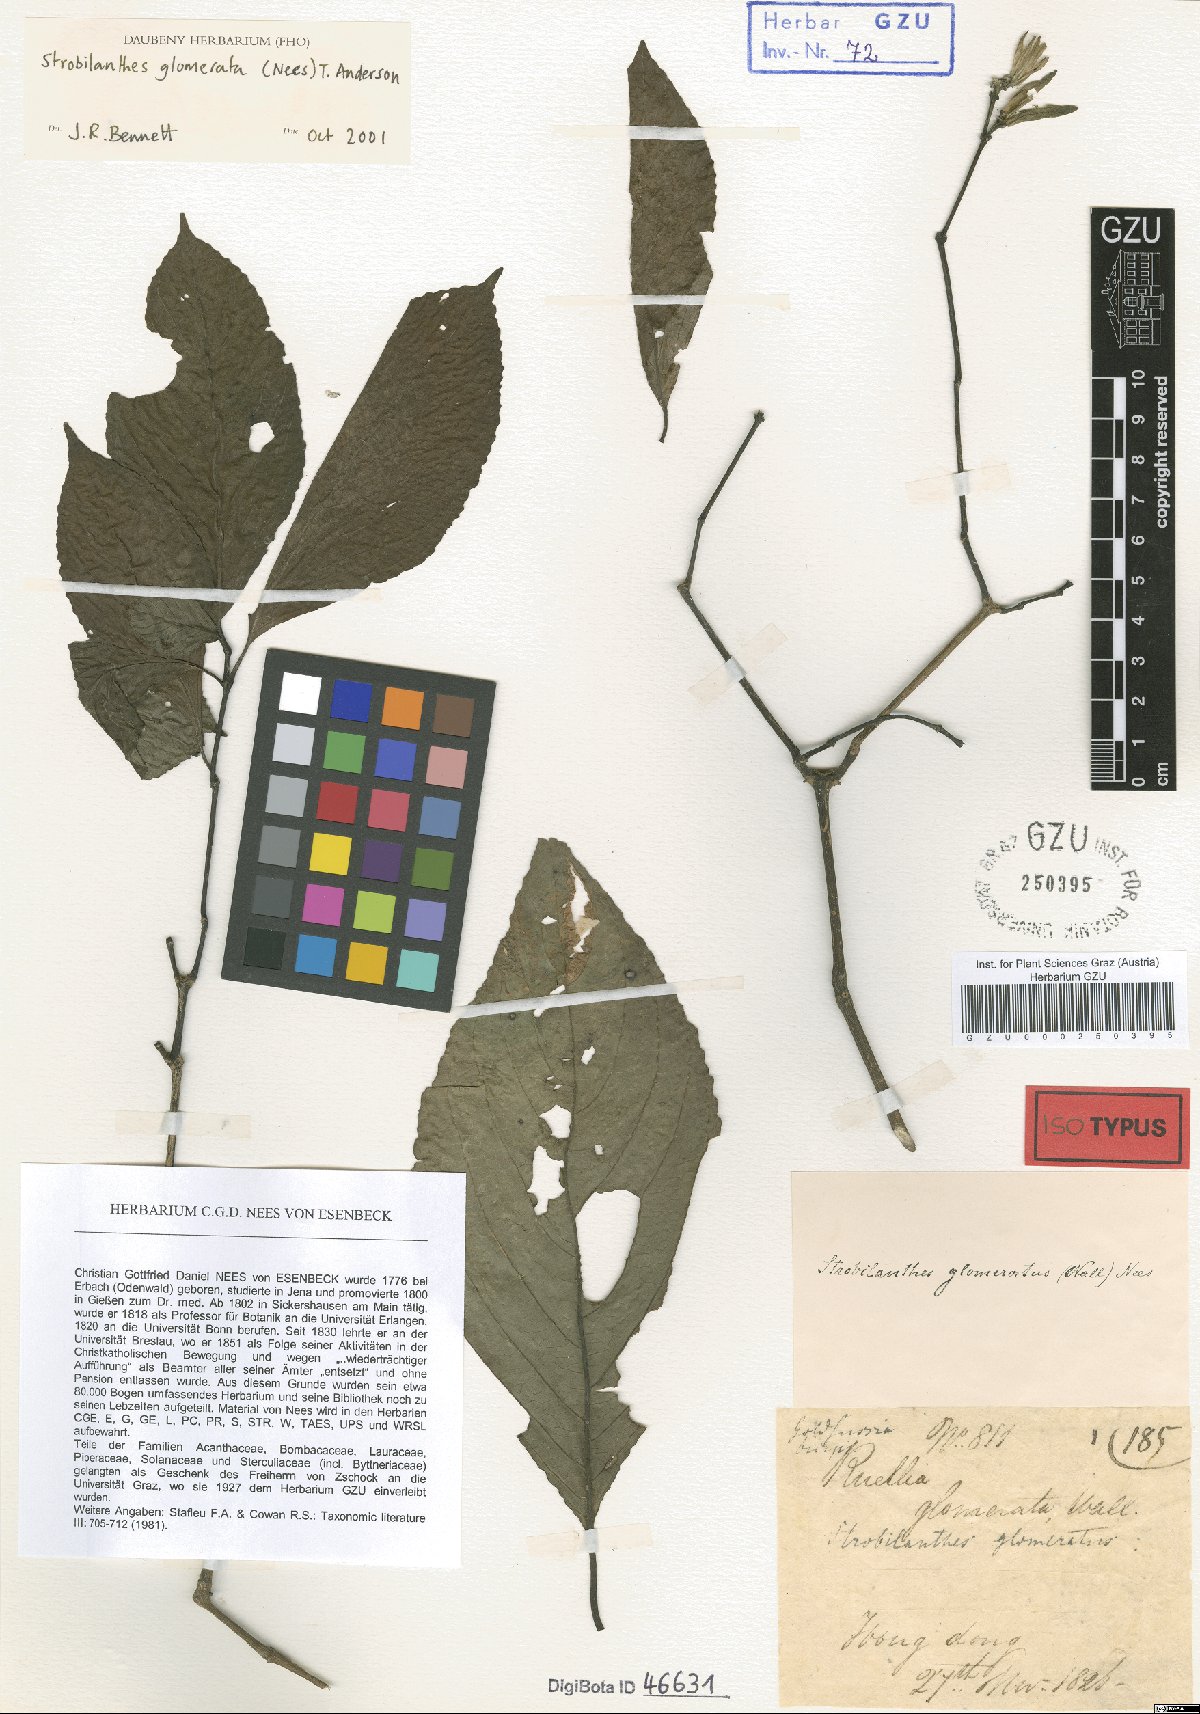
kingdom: Plantae
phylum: Tracheophyta
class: Magnoliopsida
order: Lamiales
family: Acanthaceae
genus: Strobilanthes
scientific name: Strobilanthes capitata
